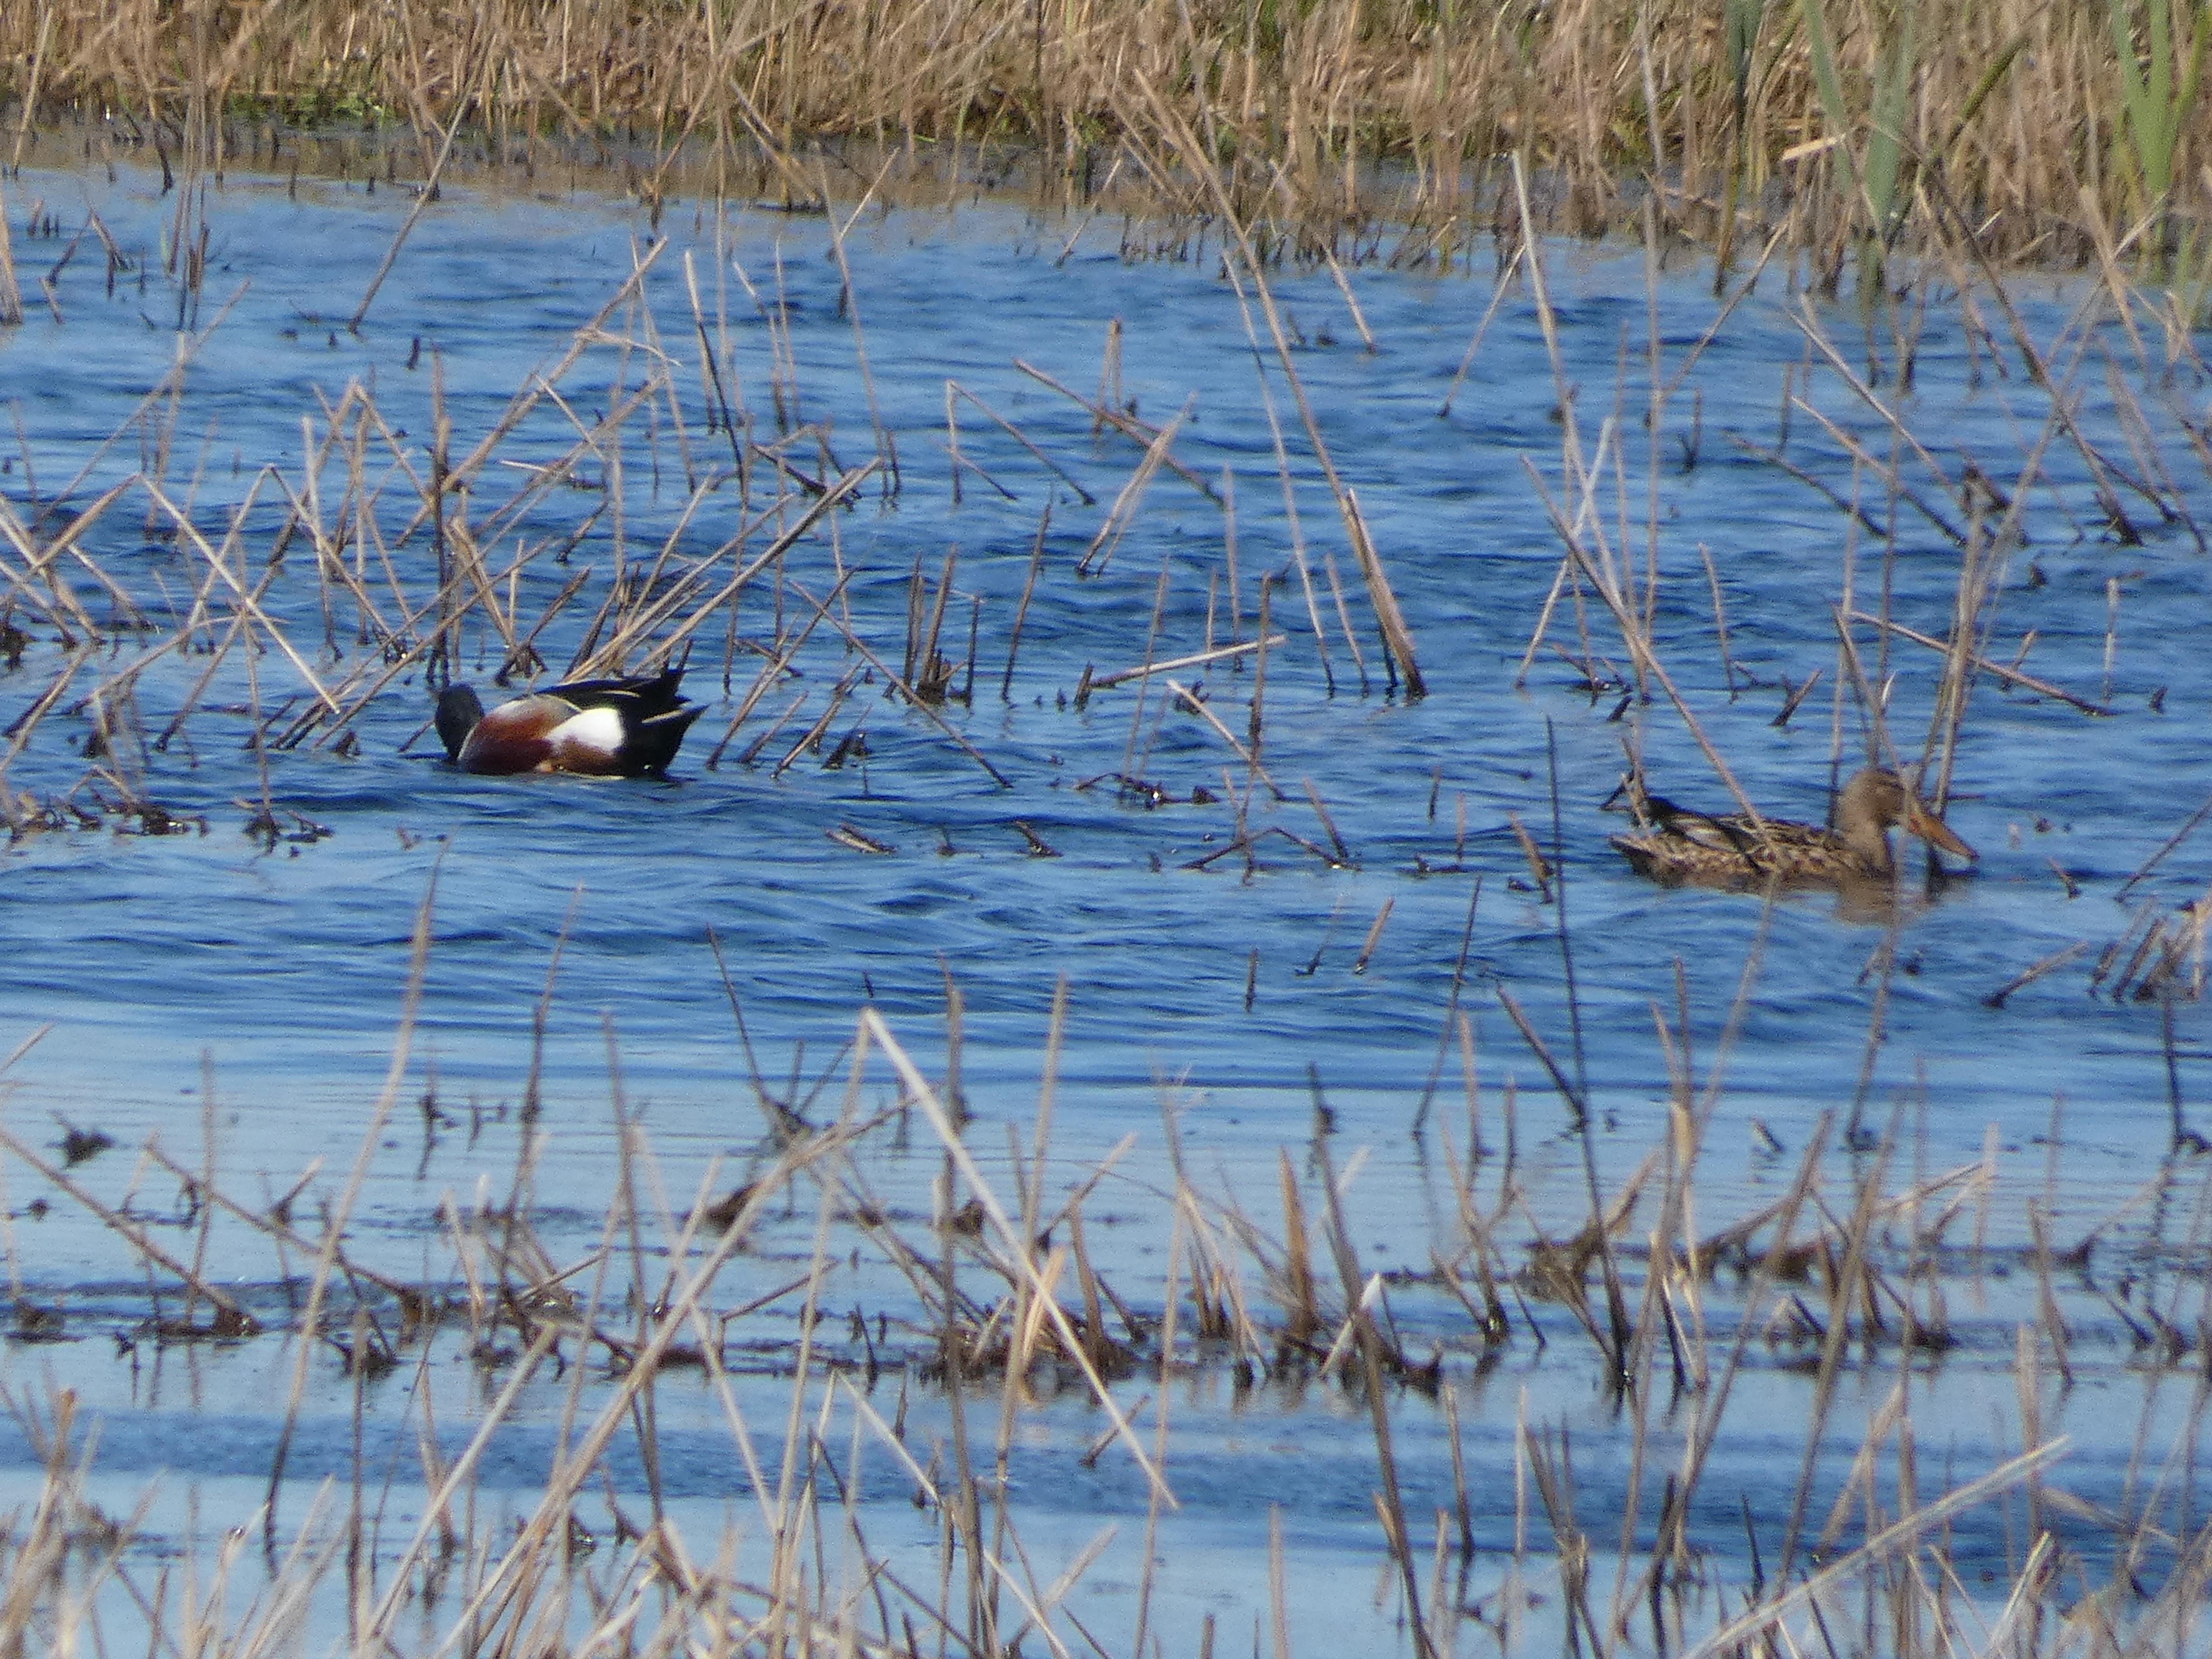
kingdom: Animalia
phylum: Chordata
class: Aves
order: Anseriformes
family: Anatidae
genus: Spatula
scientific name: Spatula clypeata
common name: Skeand
